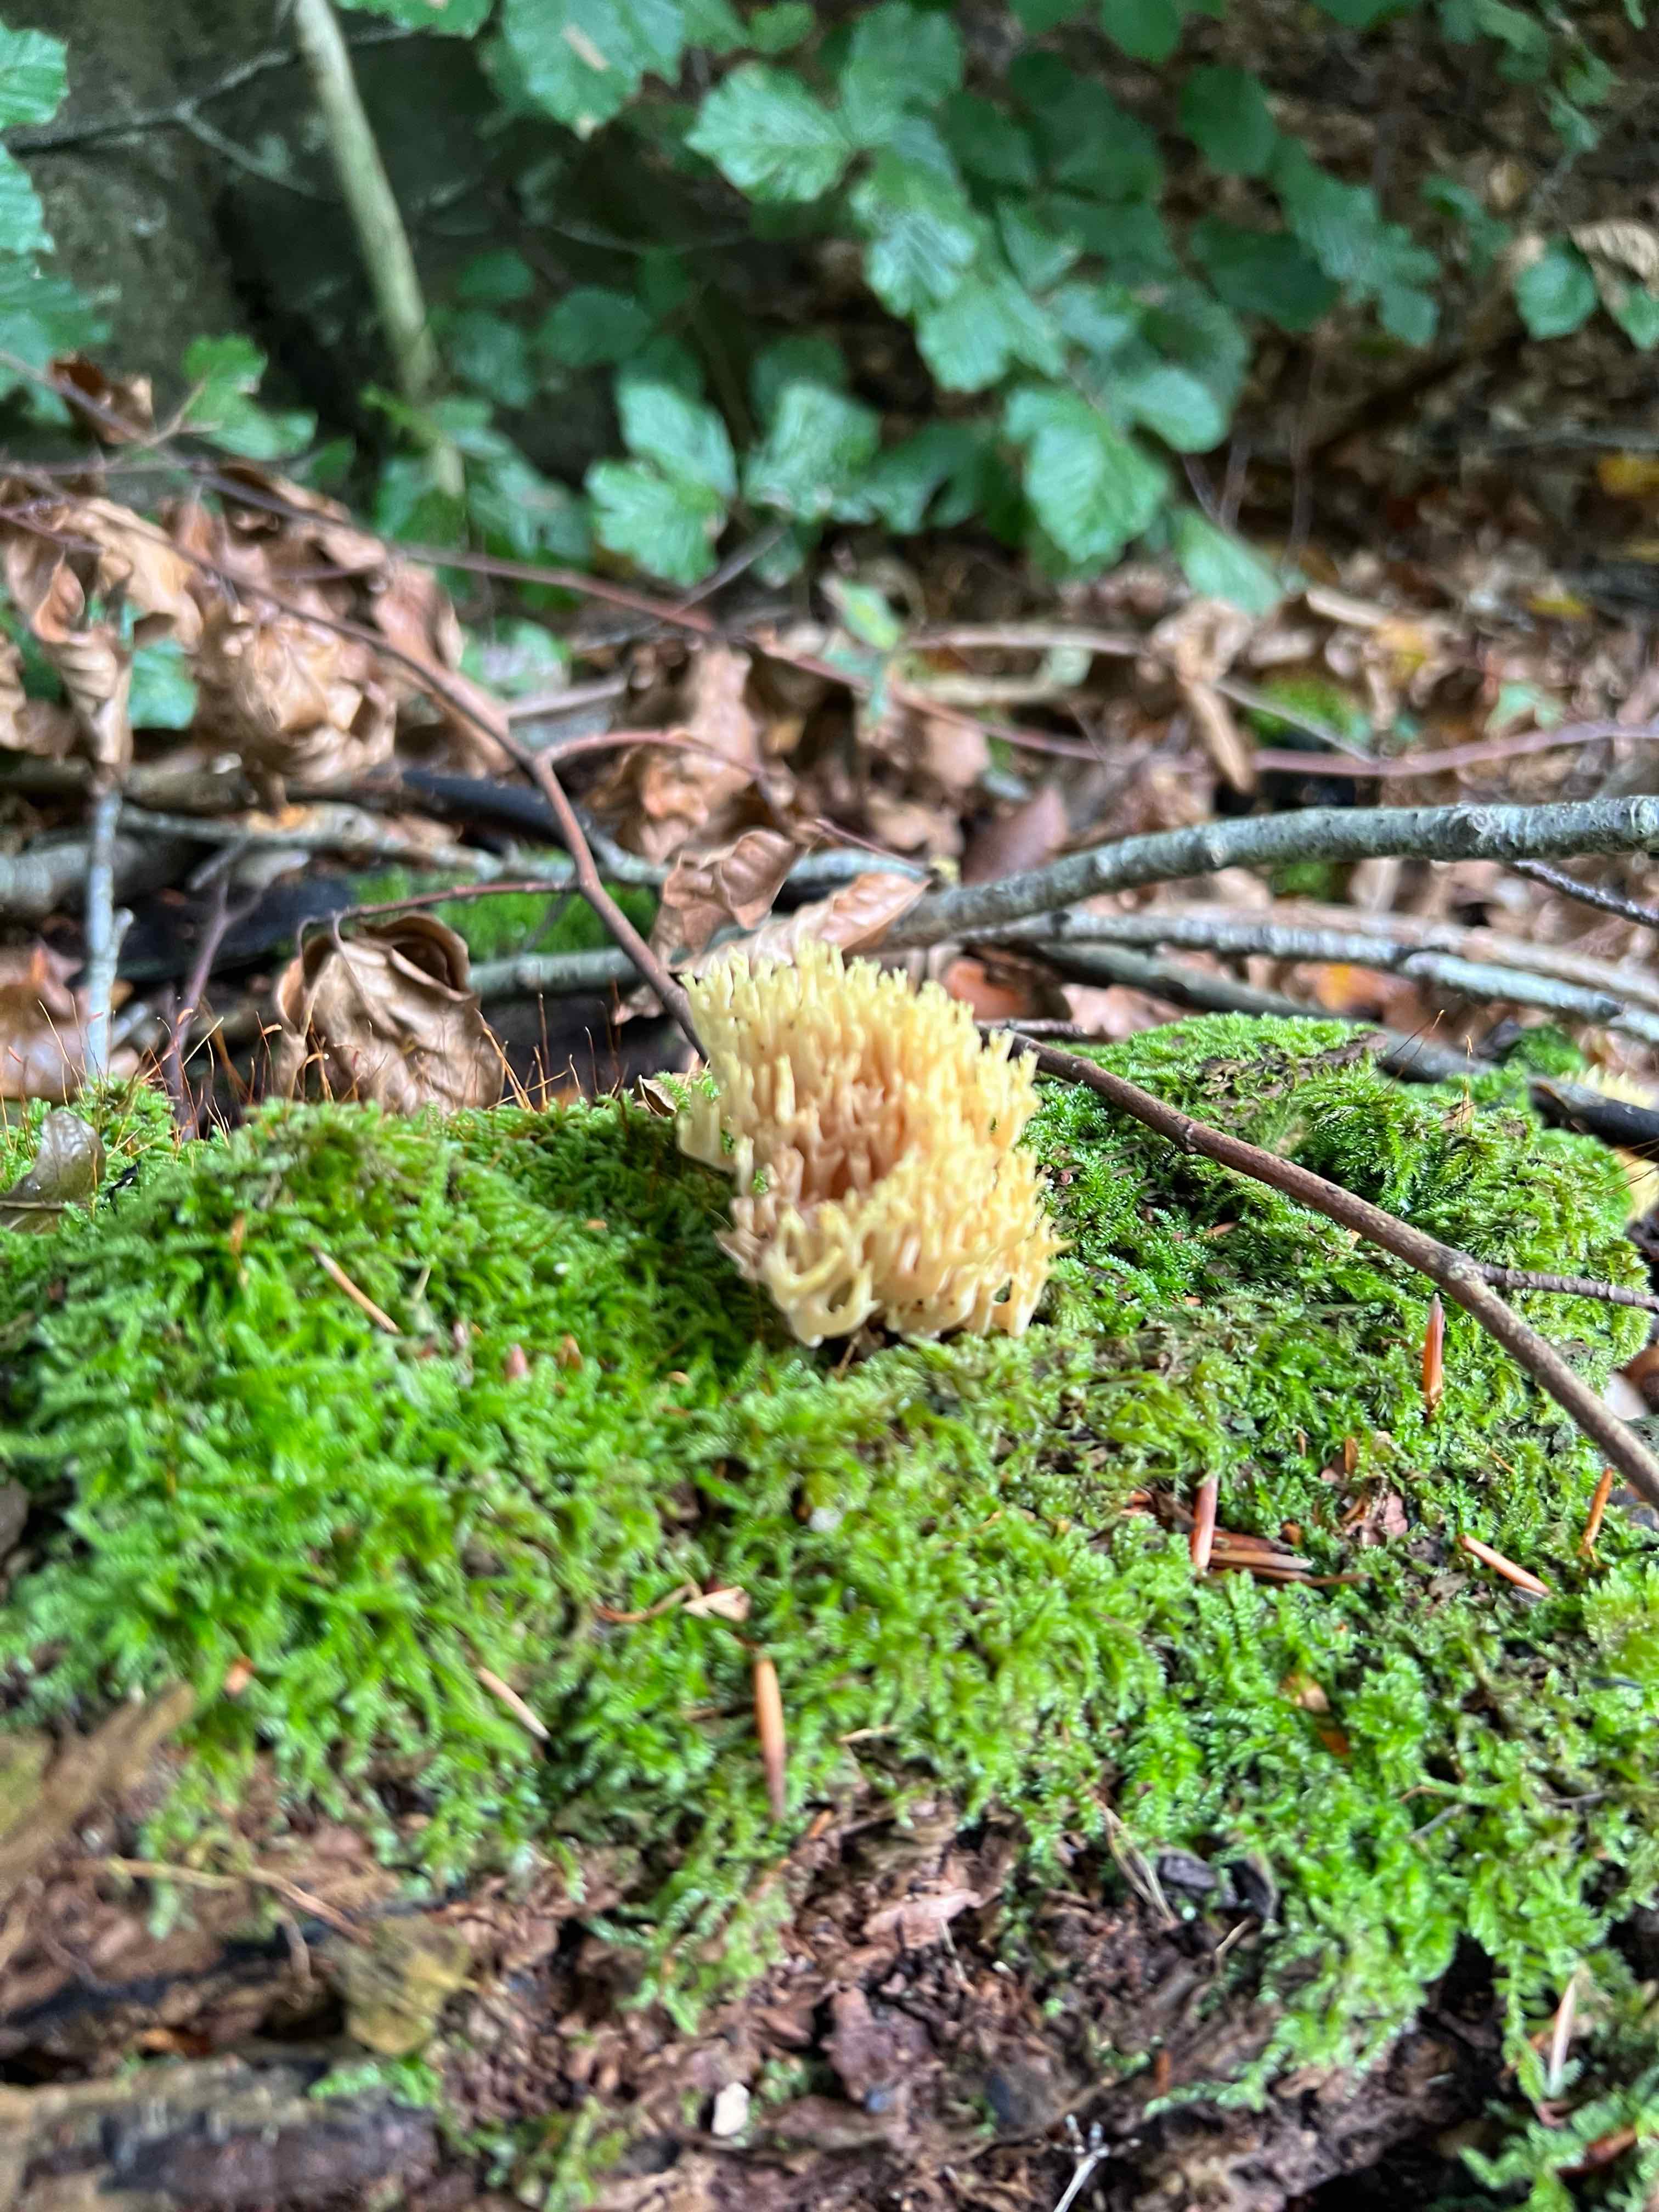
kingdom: Fungi
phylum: Basidiomycota
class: Agaricomycetes
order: Gomphales
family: Gomphaceae
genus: Ramaria
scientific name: Ramaria stricta
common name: rank koralsvamp
